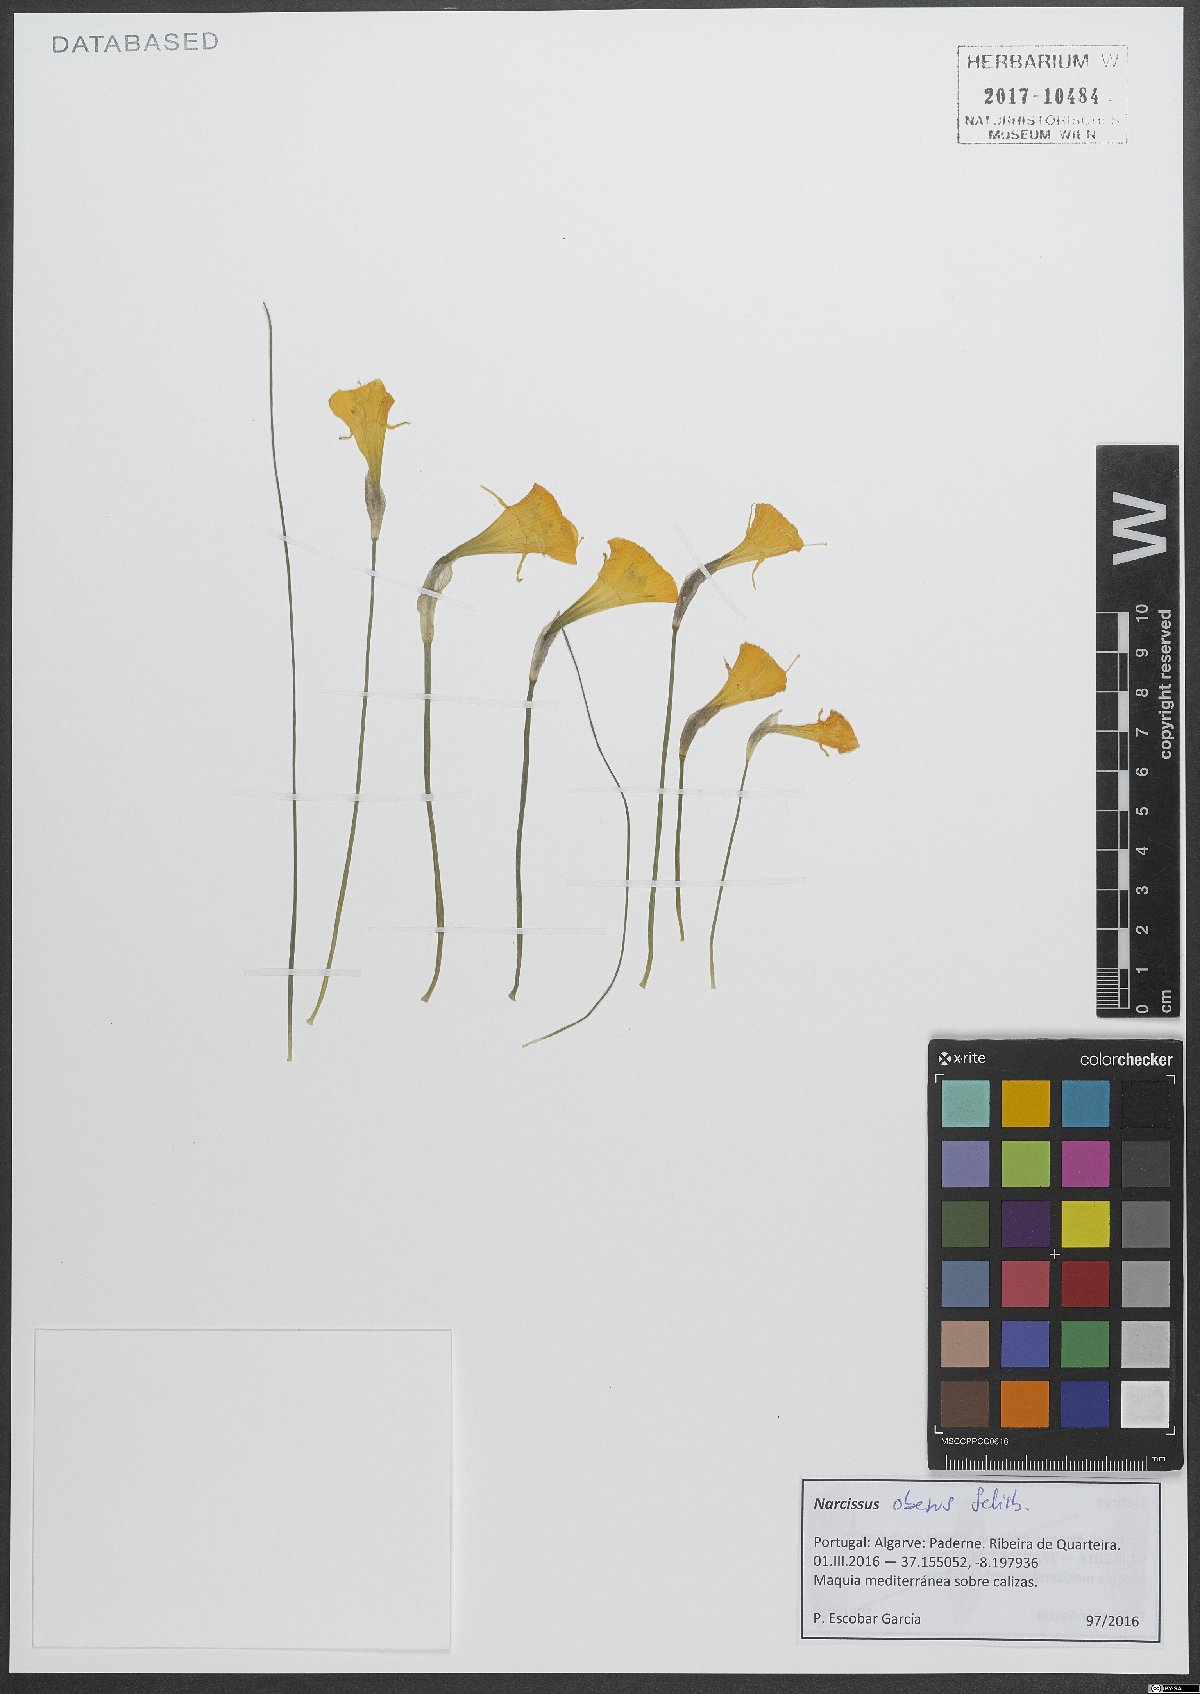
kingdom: Plantae
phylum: Tracheophyta
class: Liliopsida
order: Asparagales
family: Amaryllidaceae
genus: Narcissus
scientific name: Narcissus obesus
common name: Hoop petticoat daffodil
